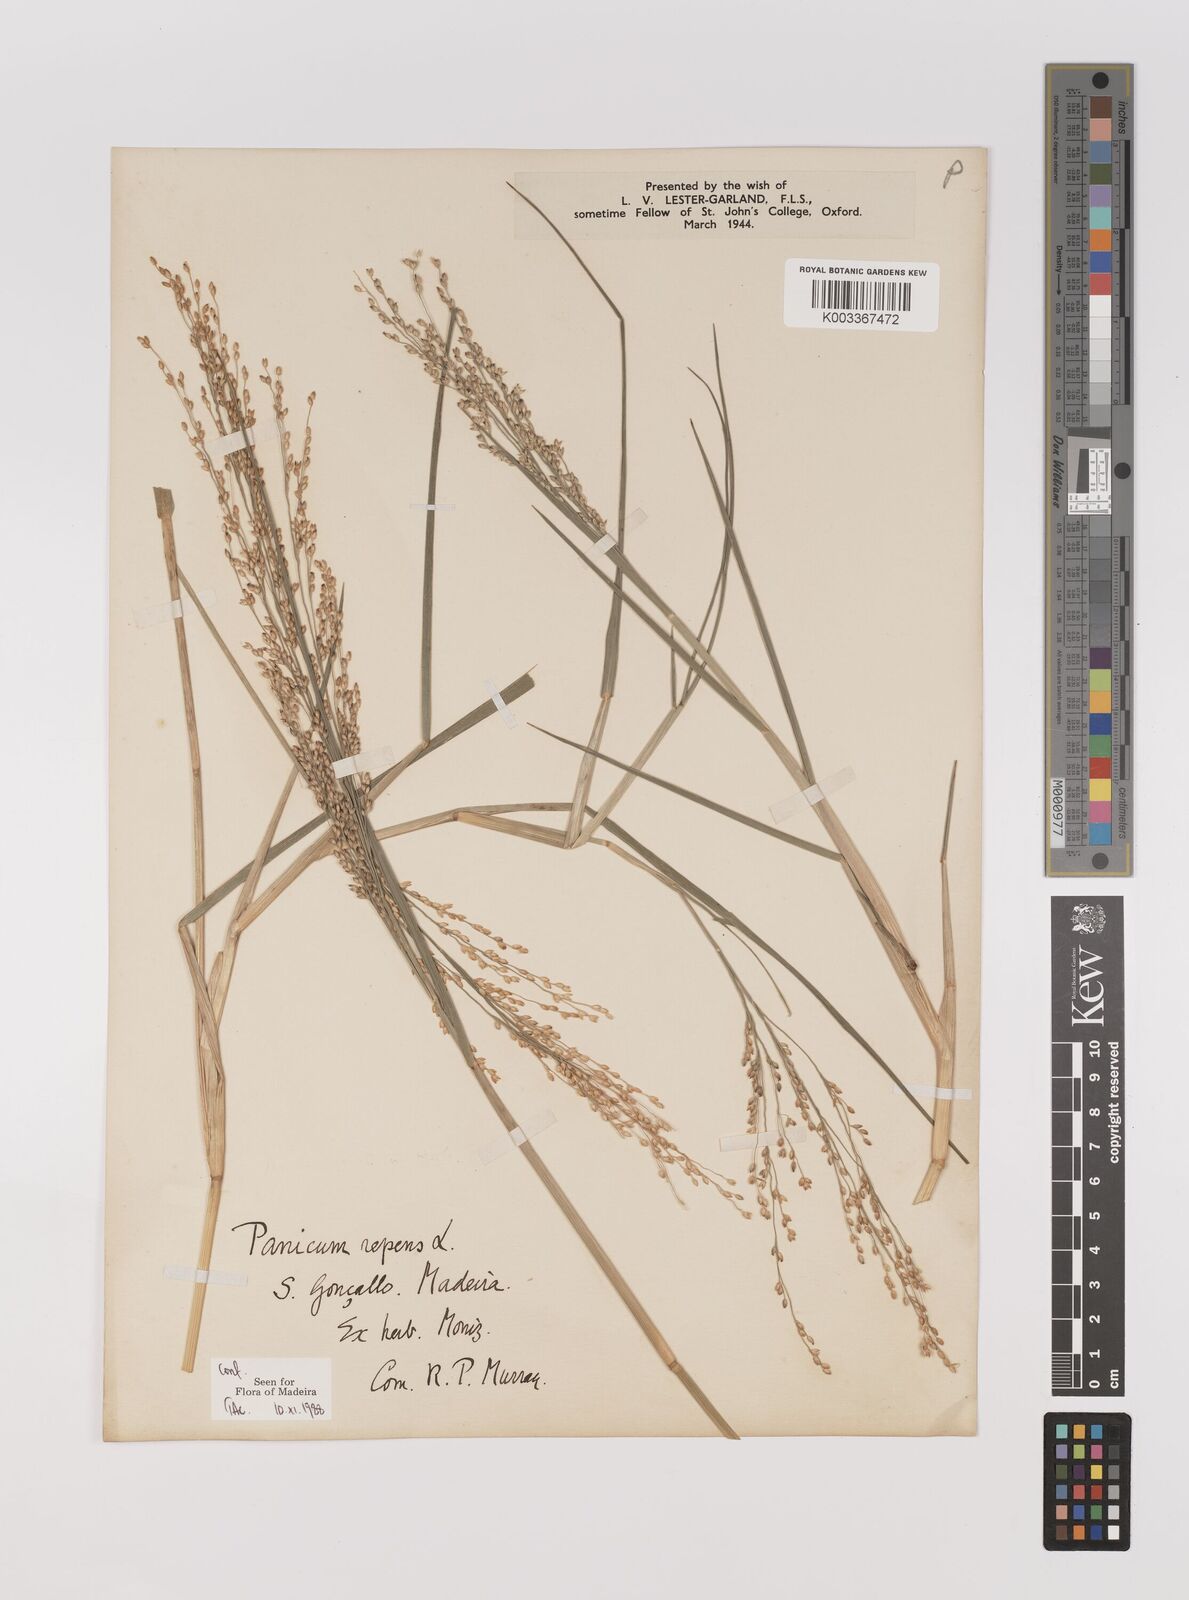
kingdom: Plantae
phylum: Tracheophyta
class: Liliopsida
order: Poales
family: Poaceae
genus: Panicum
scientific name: Panicum repens
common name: Torpedo grass
